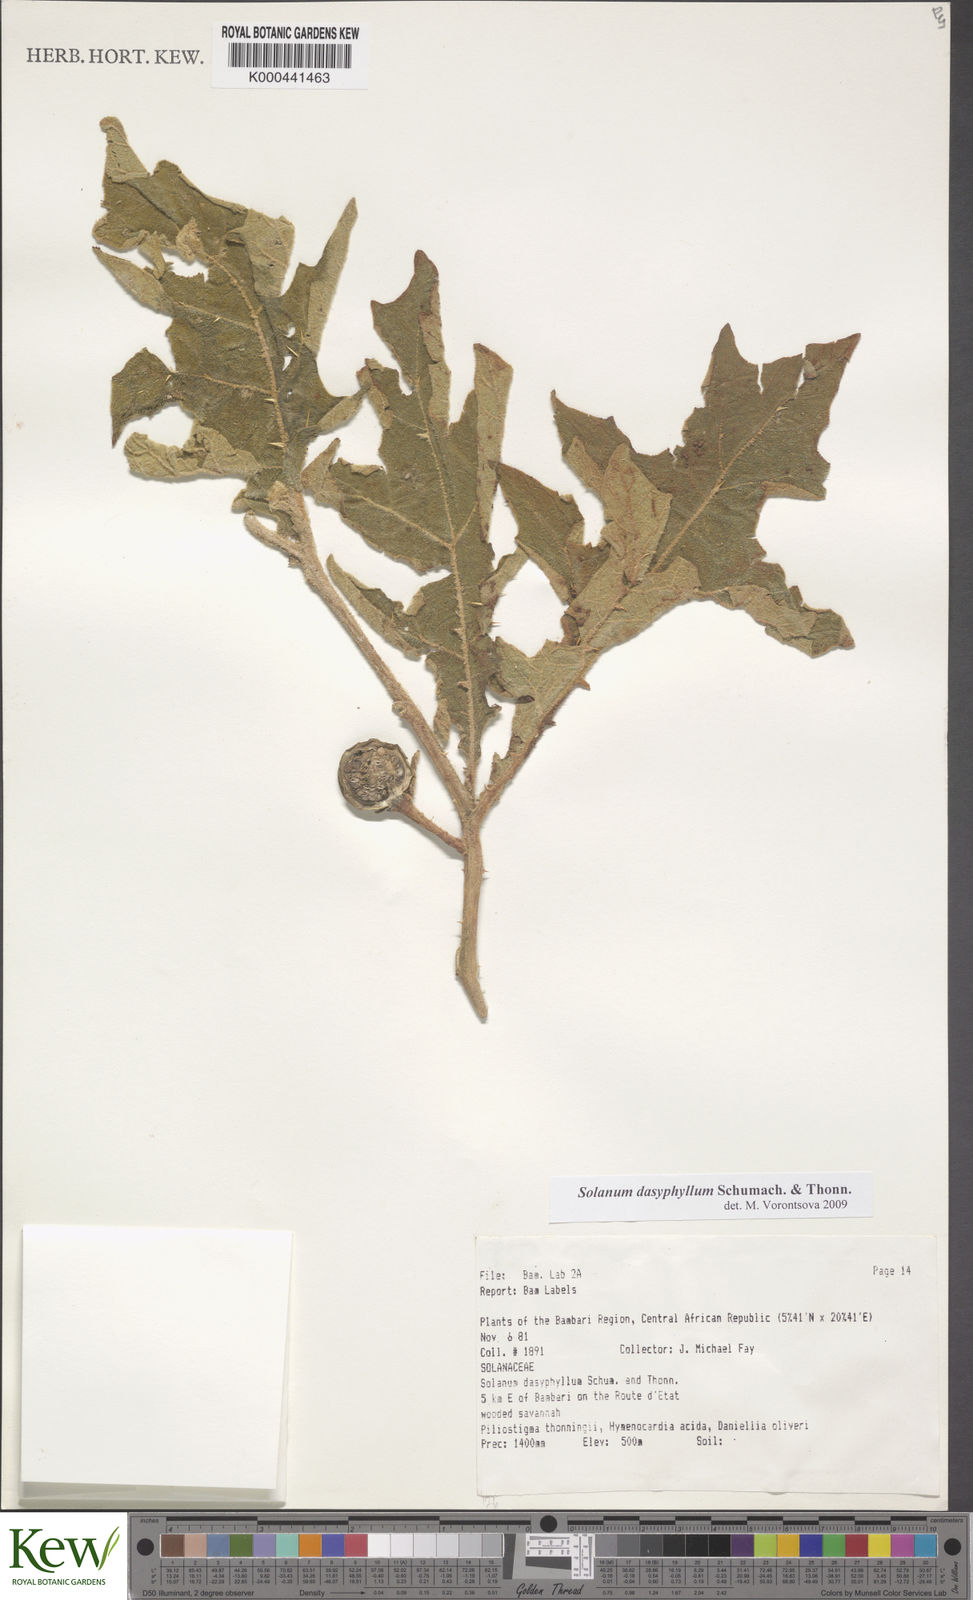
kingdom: Plantae
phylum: Tracheophyta
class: Magnoliopsida
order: Solanales
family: Solanaceae
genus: Solanum
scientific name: Solanum dasyphyllum
